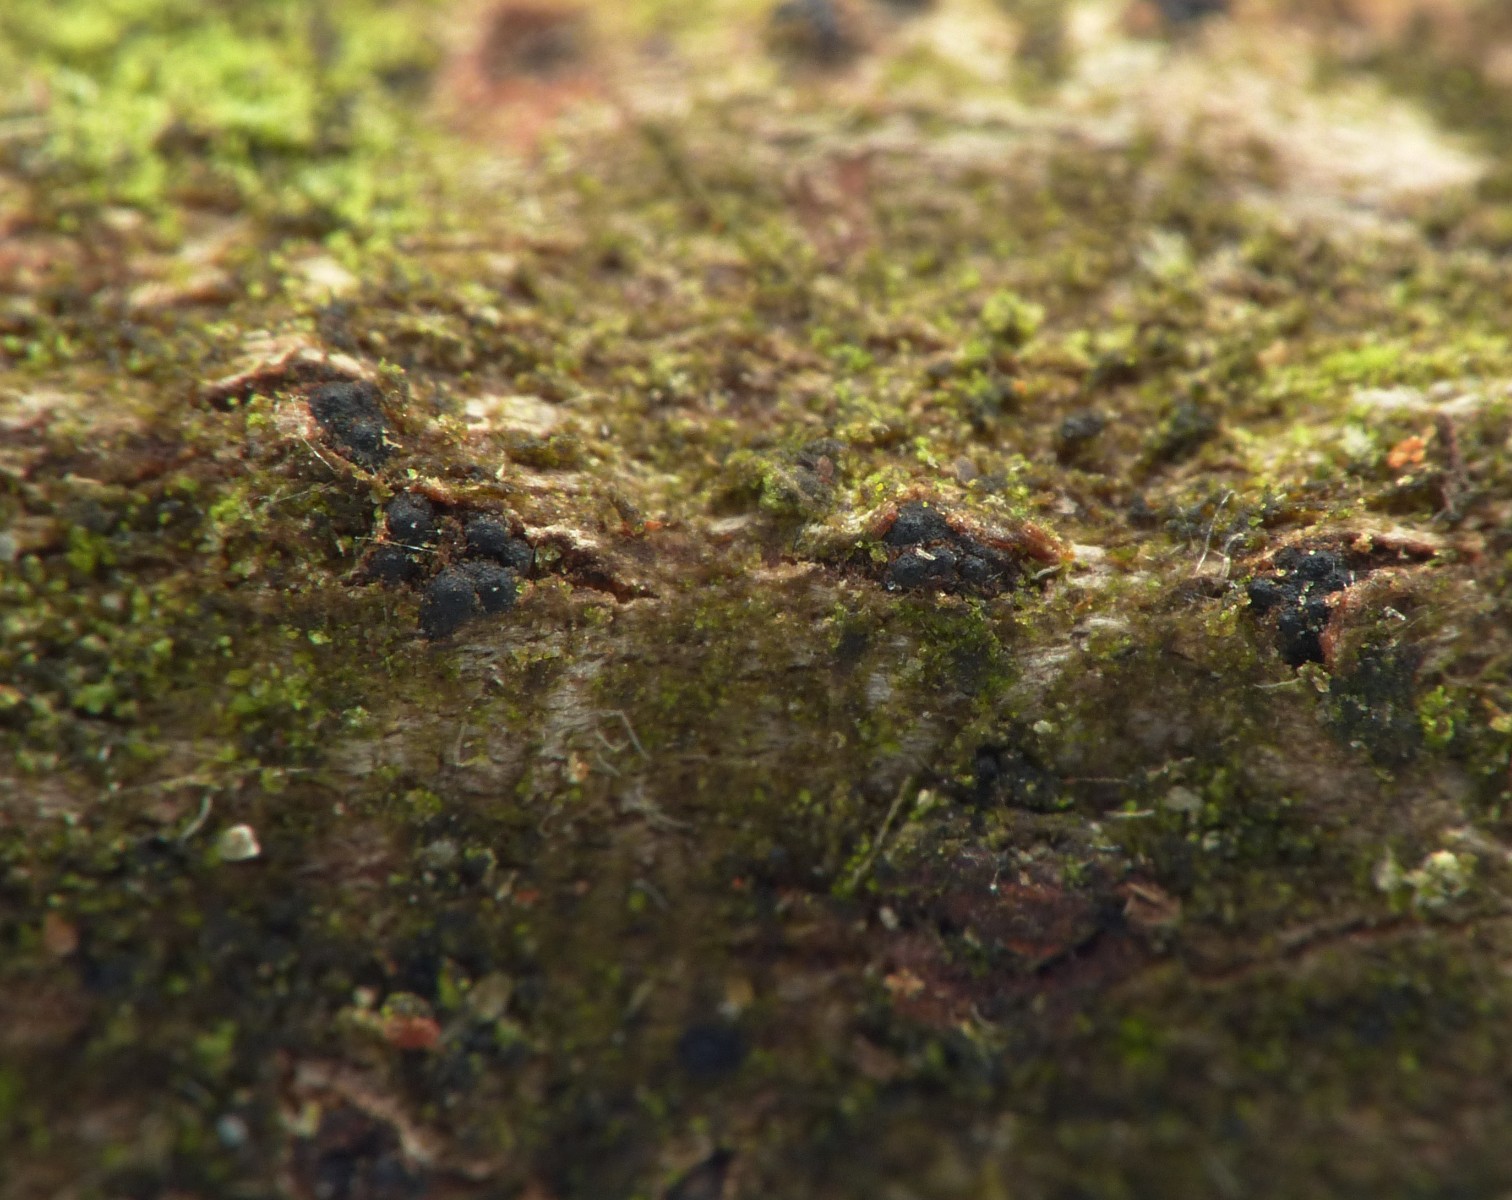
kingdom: Fungi
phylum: Ascomycota
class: Sordariomycetes
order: Diaporthales
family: Valsaceae
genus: Valsa
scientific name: Valsa salicina
